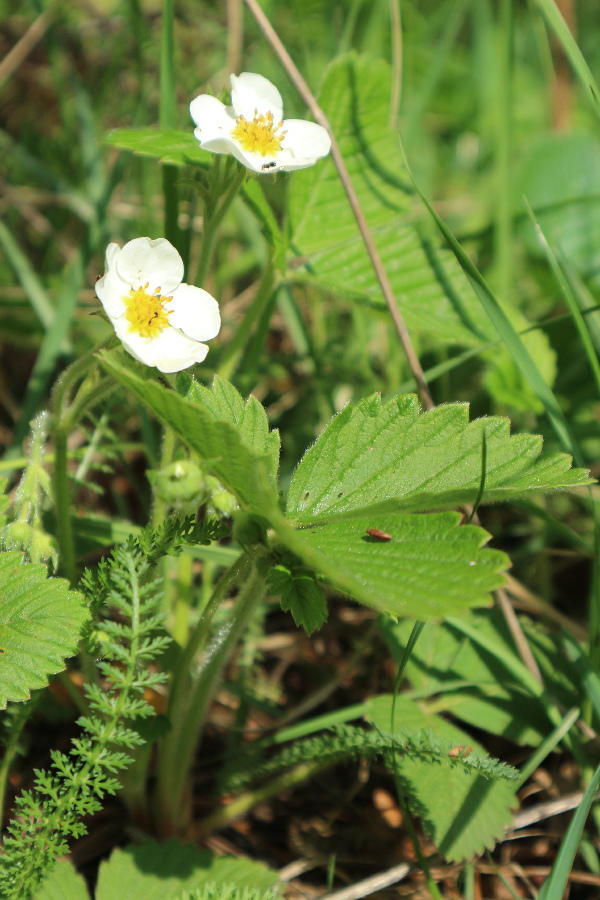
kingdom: Plantae
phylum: Tracheophyta
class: Magnoliopsida
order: Rosales
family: Rosaceae
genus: Fragaria
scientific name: Fragaria vesca
